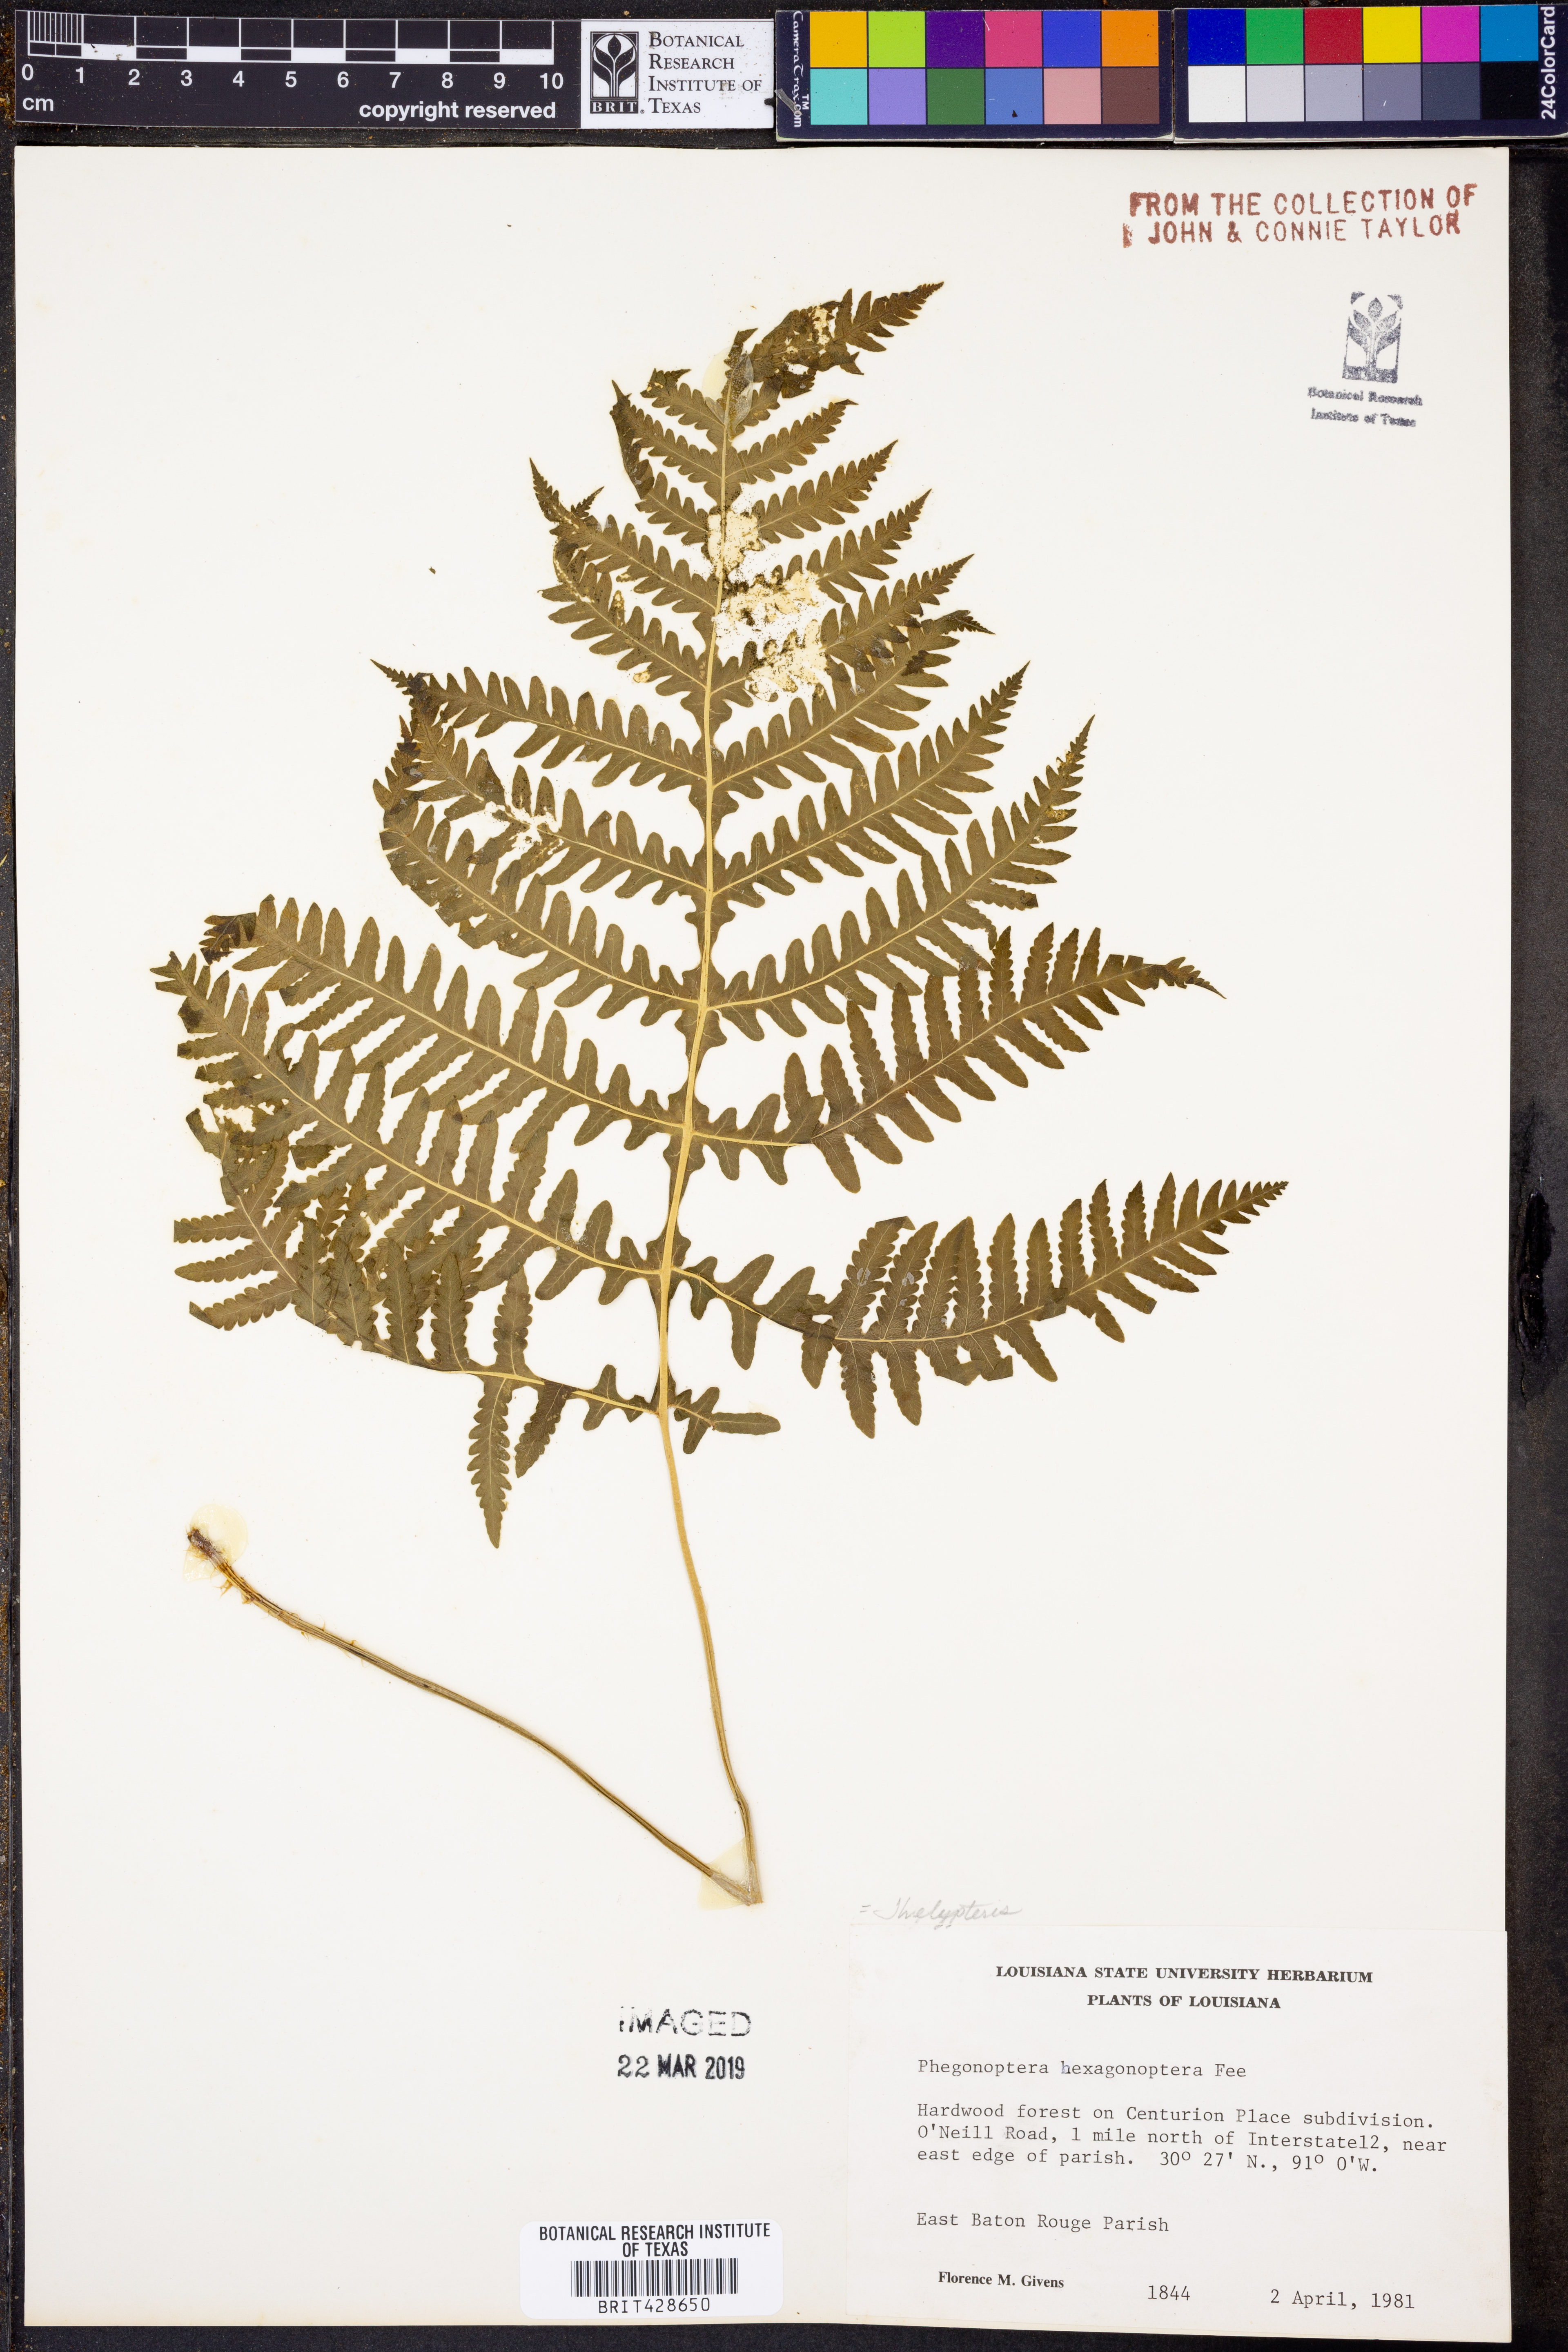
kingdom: Plantae
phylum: Tracheophyta
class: Polypodiopsida
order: Polypodiales
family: Thelypteridaceae
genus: Phegopteris
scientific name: Phegopteris hexagonoptera
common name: Broad beech fern
